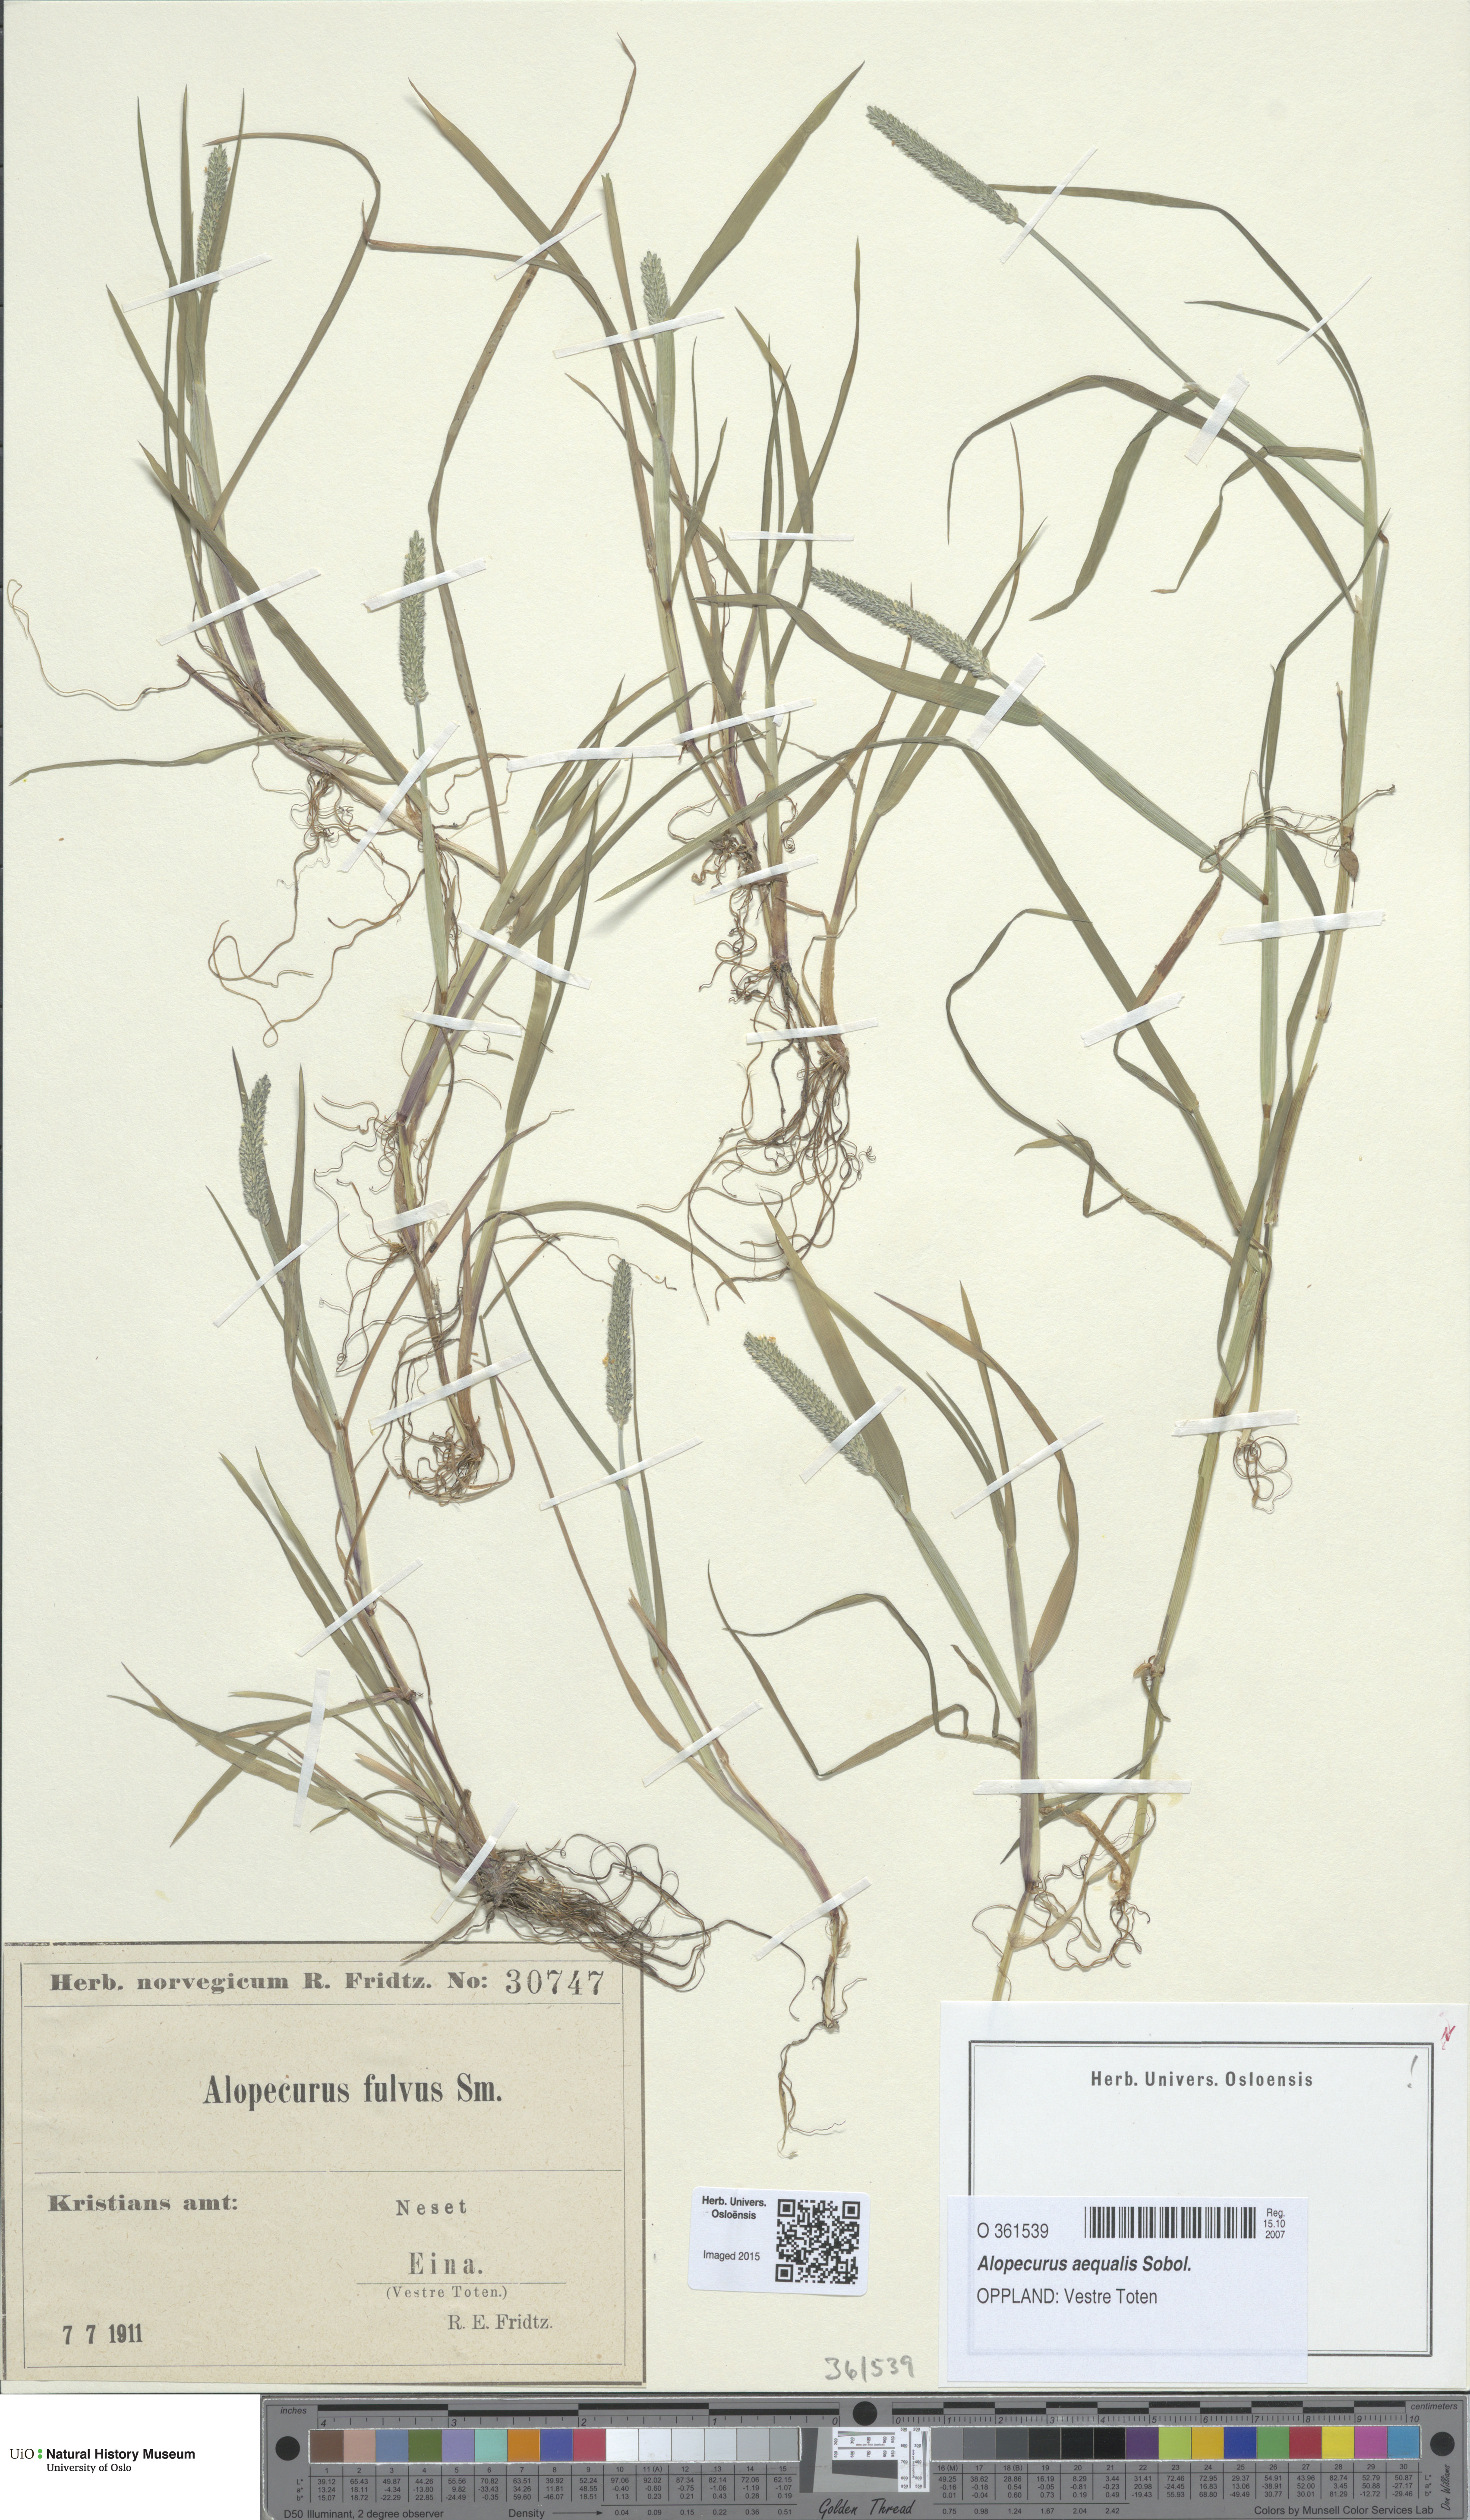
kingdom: Plantae
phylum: Tracheophyta
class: Liliopsida
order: Poales
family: Poaceae
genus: Alopecurus
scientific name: Alopecurus aequalis
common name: Orange foxtail
